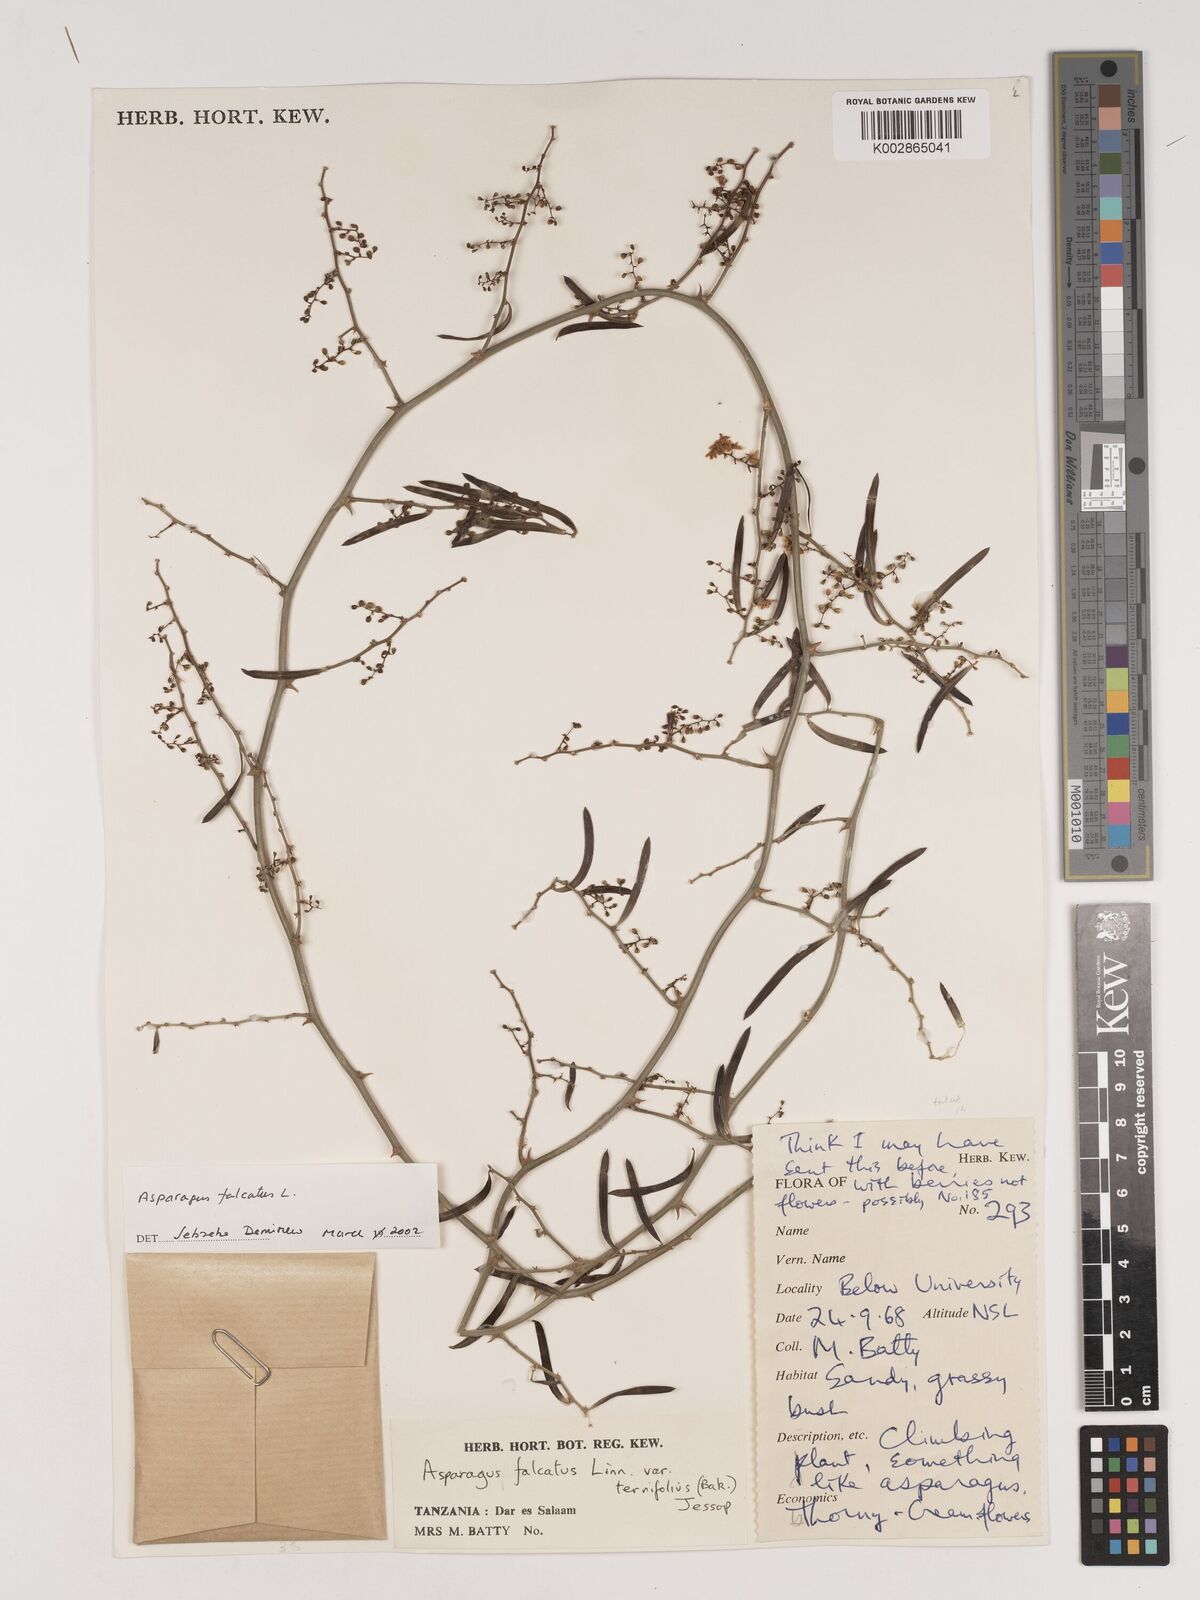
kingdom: Plantae
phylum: Tracheophyta
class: Liliopsida
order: Asparagales
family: Asparagaceae
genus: Asparagus
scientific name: Asparagus falcatus
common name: Asparagus
